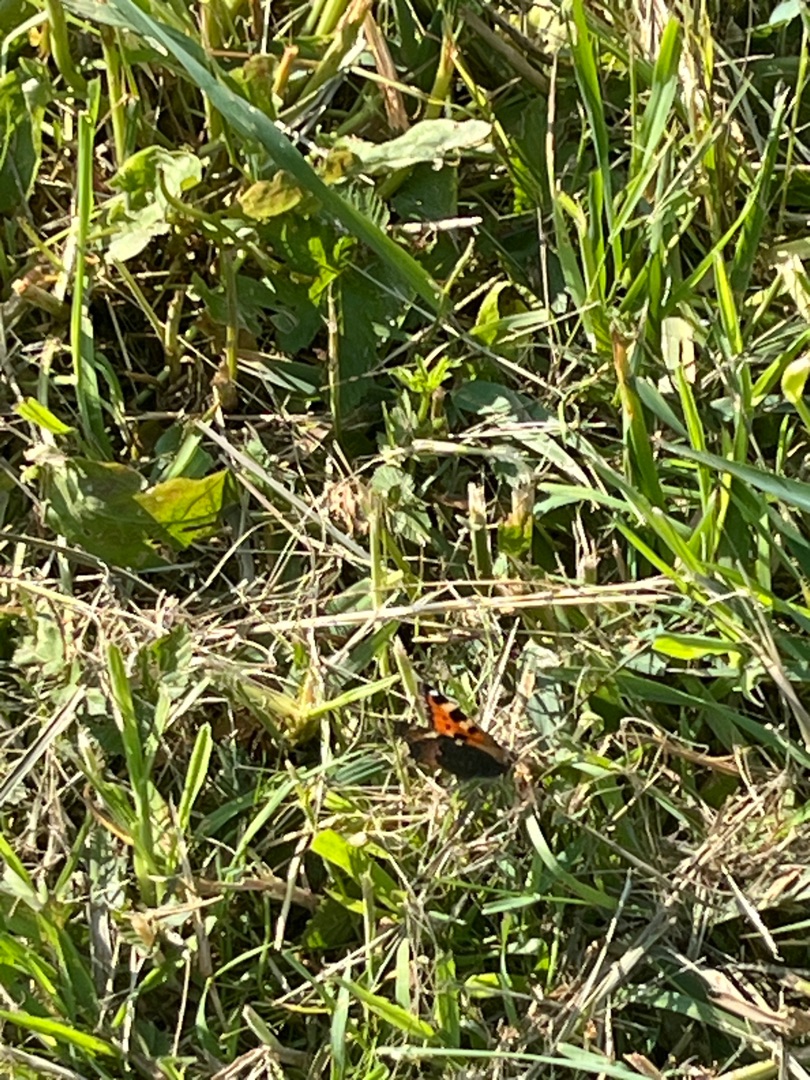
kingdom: Animalia
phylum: Arthropoda
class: Insecta
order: Lepidoptera
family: Nymphalidae
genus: Aglais
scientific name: Aglais urticae
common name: Nældens takvinge
